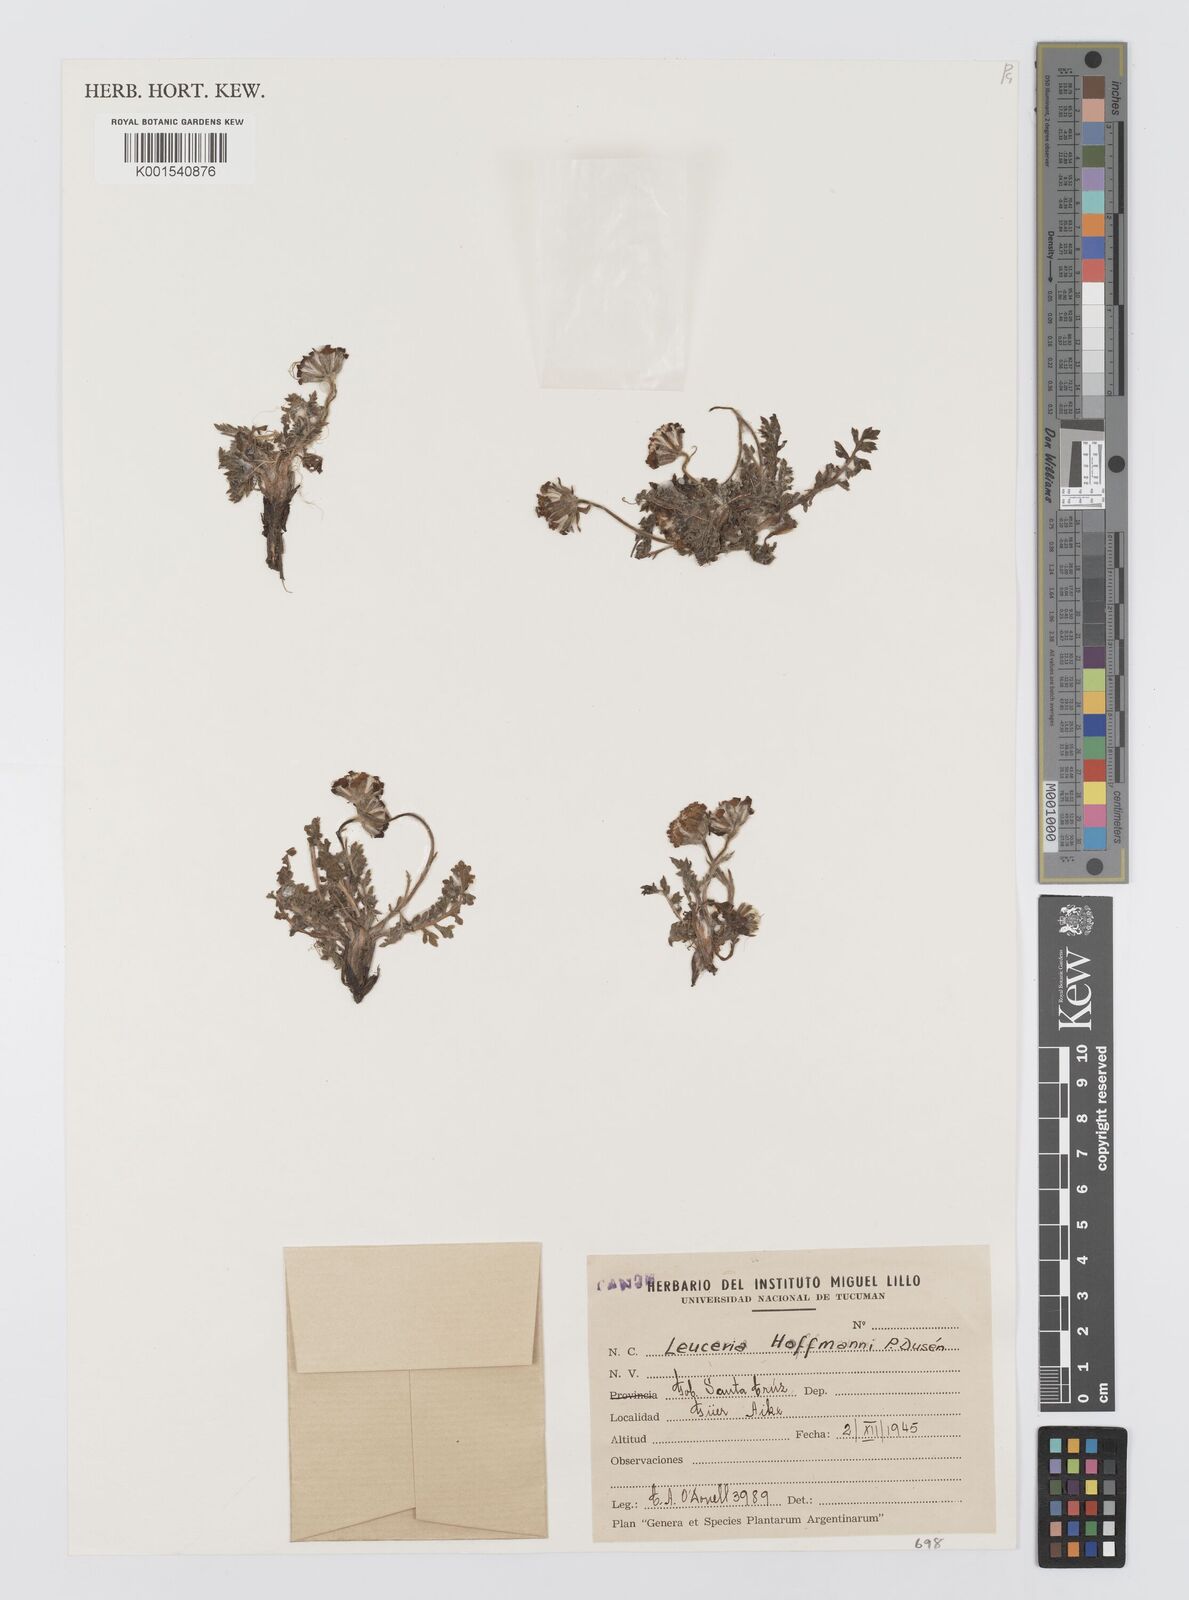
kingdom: Plantae
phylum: Tracheophyta
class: Magnoliopsida
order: Asterales
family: Asteraceae
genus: Leucheria
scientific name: Leucheria leontopodioides
